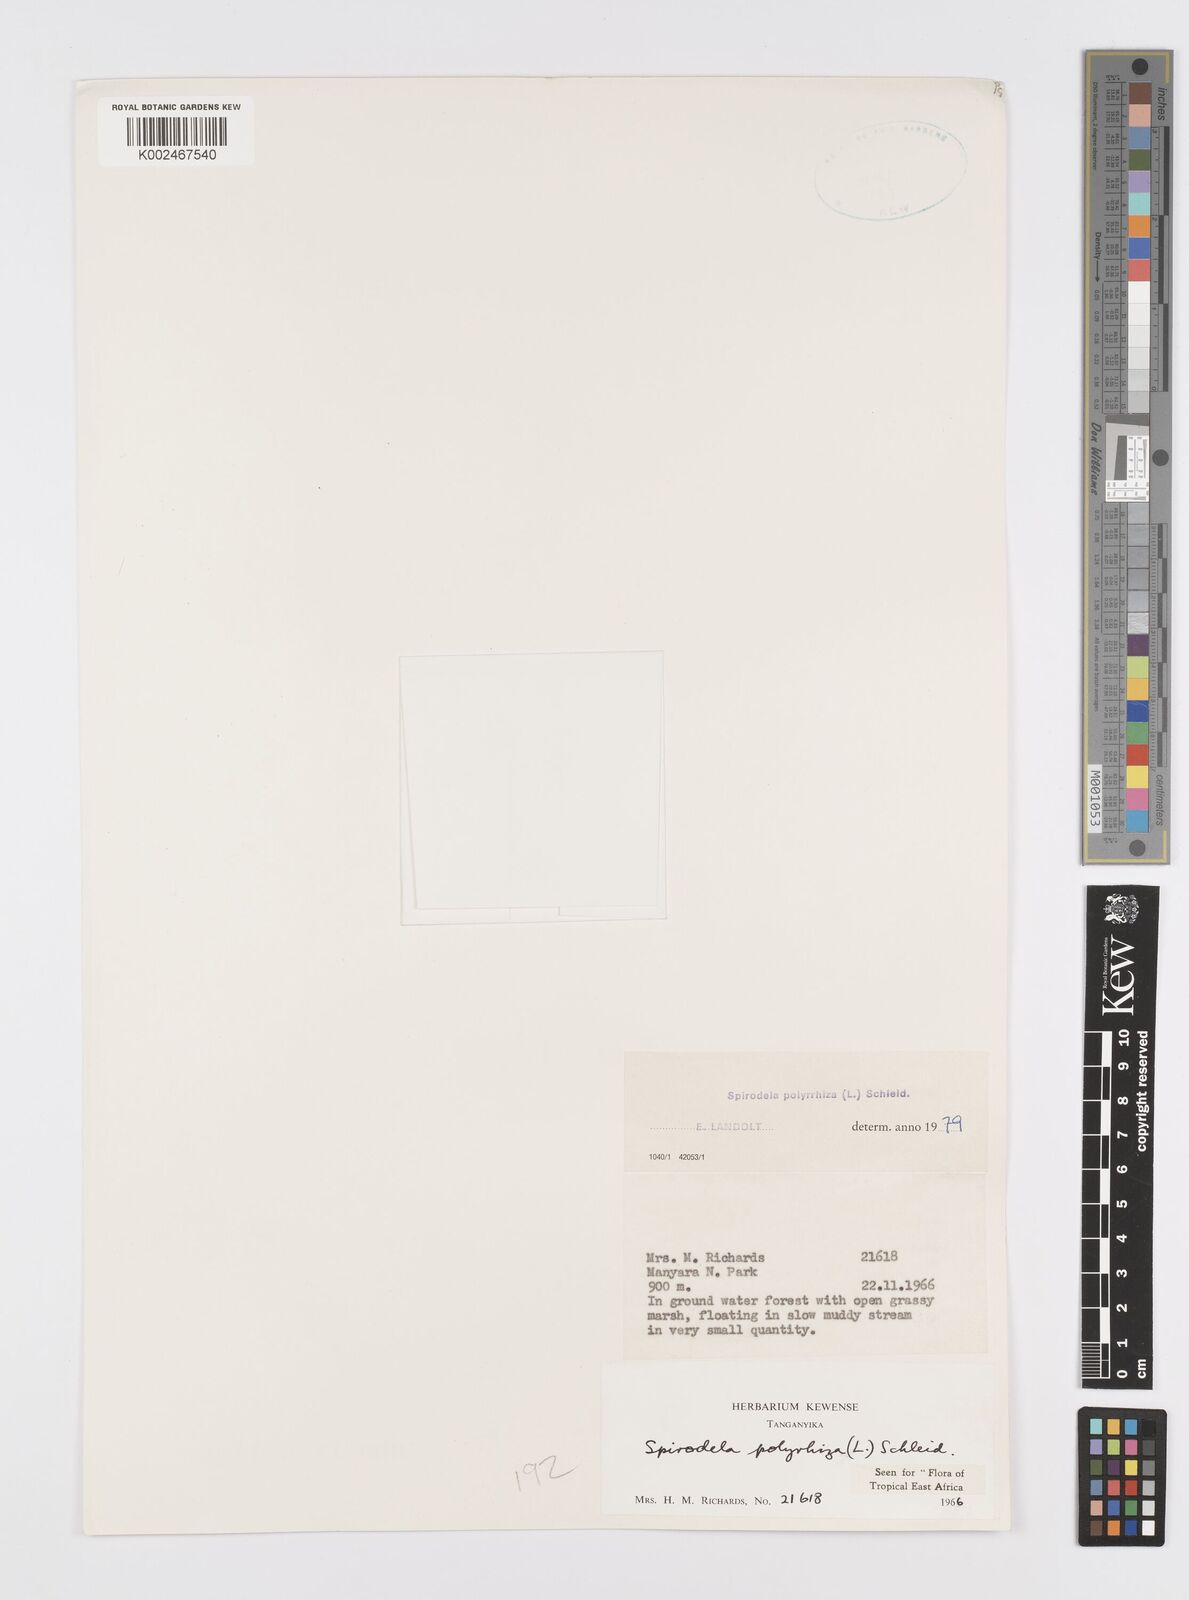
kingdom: Plantae
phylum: Tracheophyta
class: Liliopsida
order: Alismatales
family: Araceae
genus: Spirodela
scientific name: Spirodela polyrhiza
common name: Great duckweed
